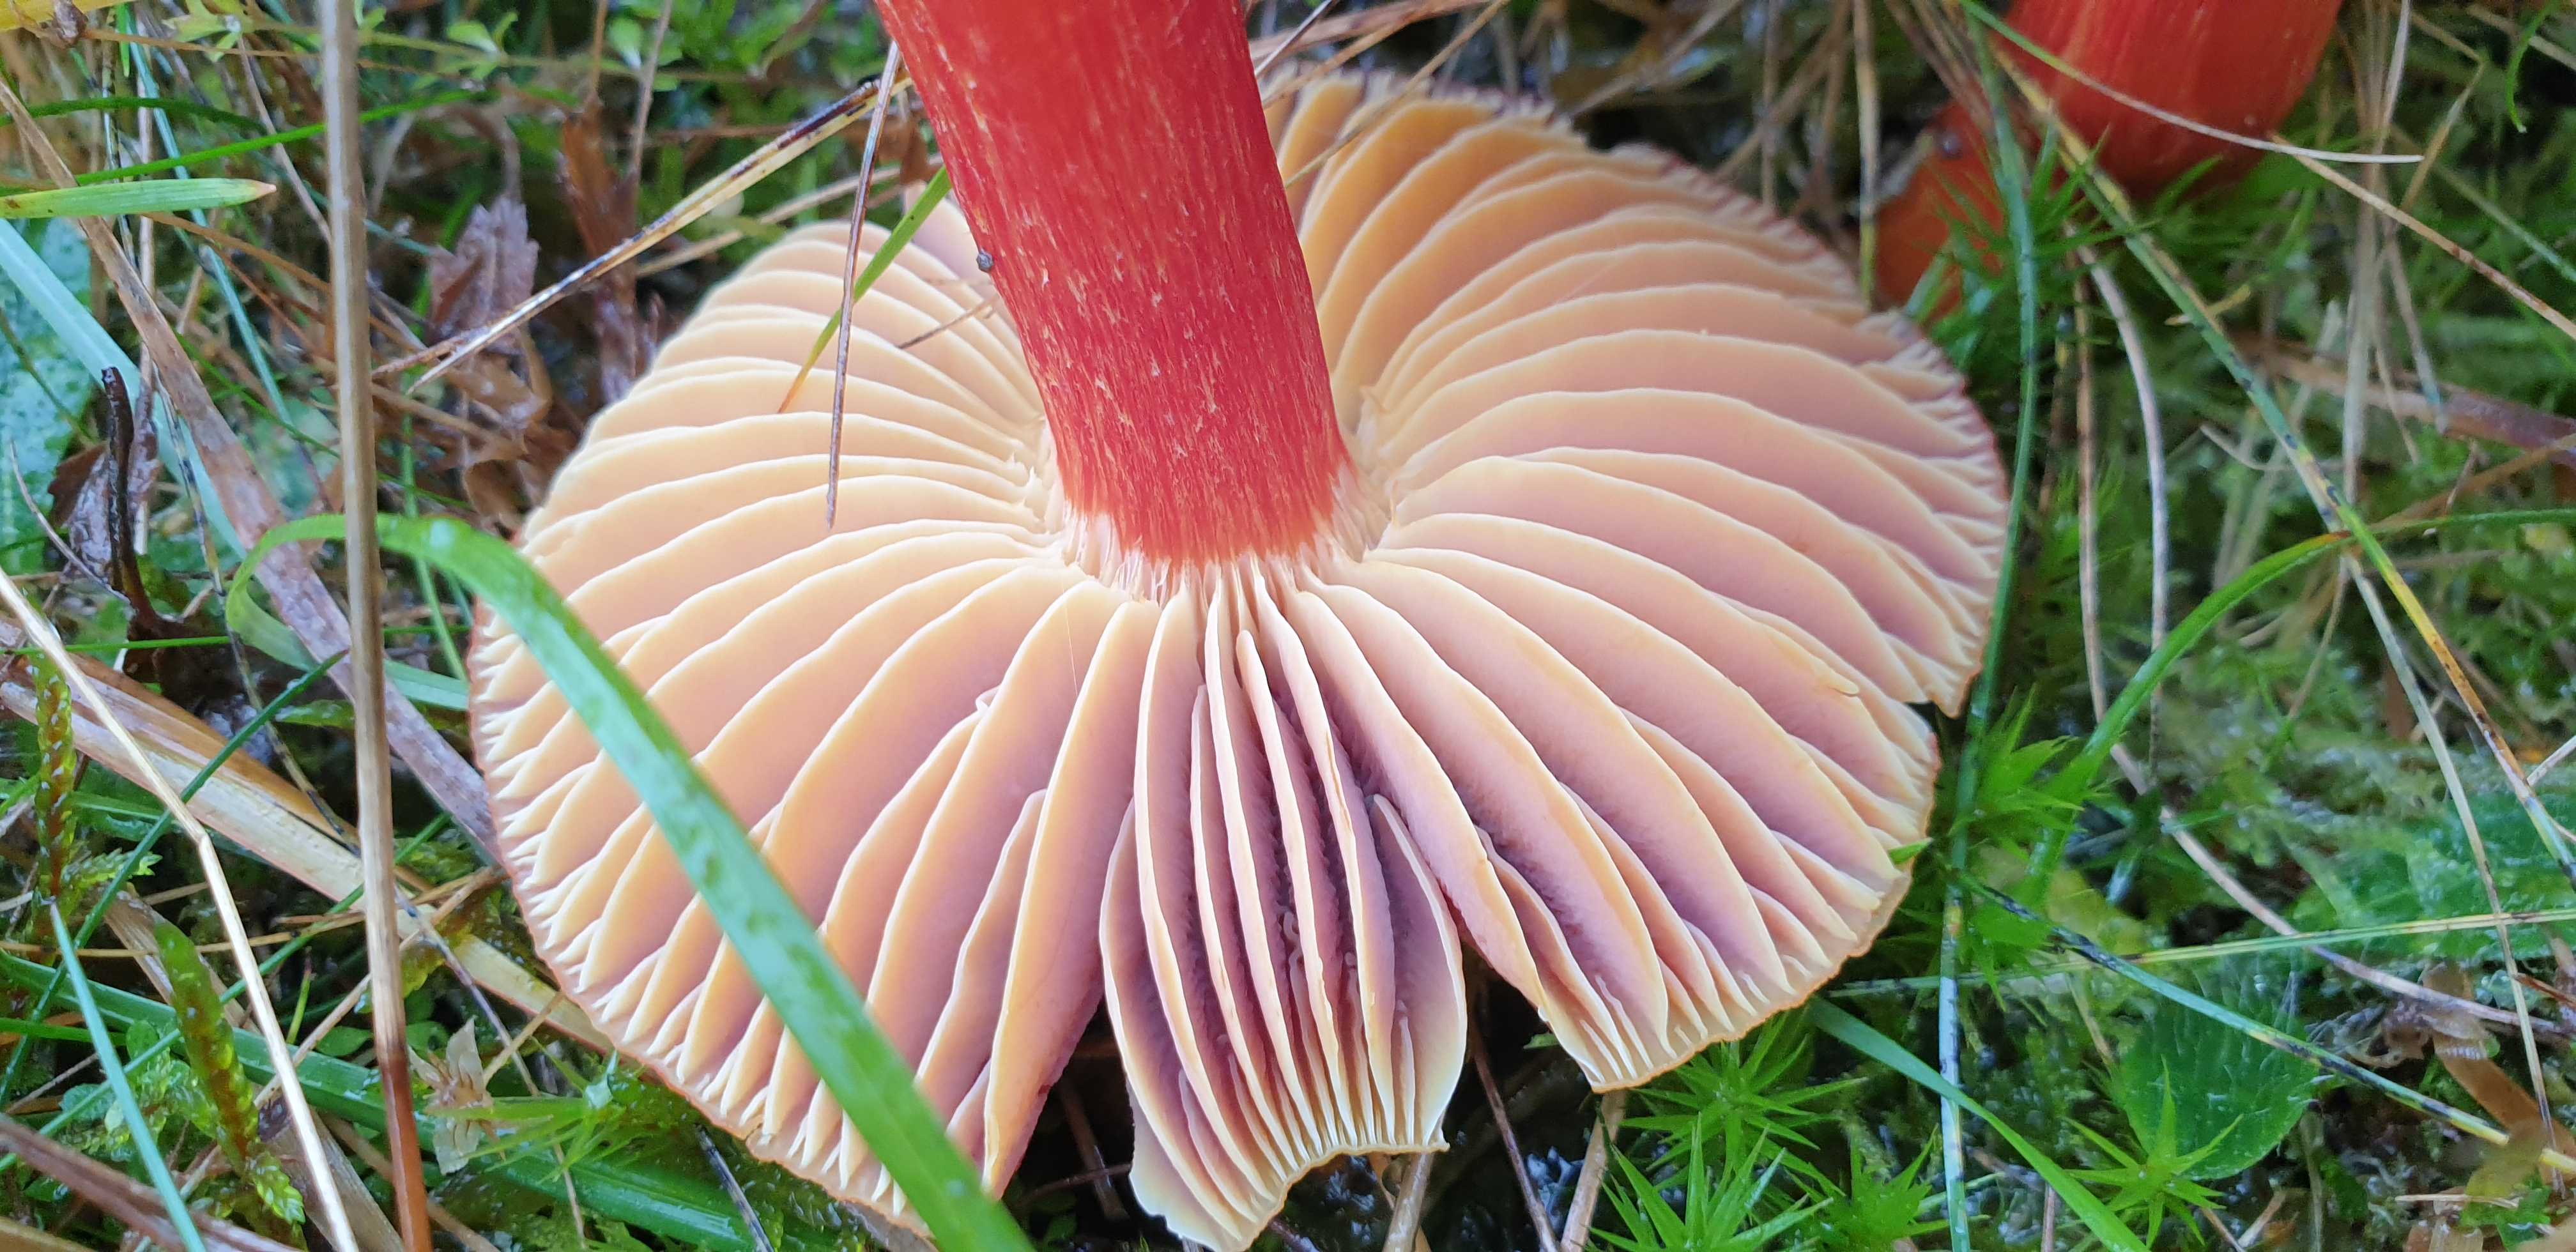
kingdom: Fungi
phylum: Basidiomycota
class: Agaricomycetes
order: Agaricales
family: Hygrophoraceae
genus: Hygrocybe
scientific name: Hygrocybe punicea
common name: skarlagen-vokshat
